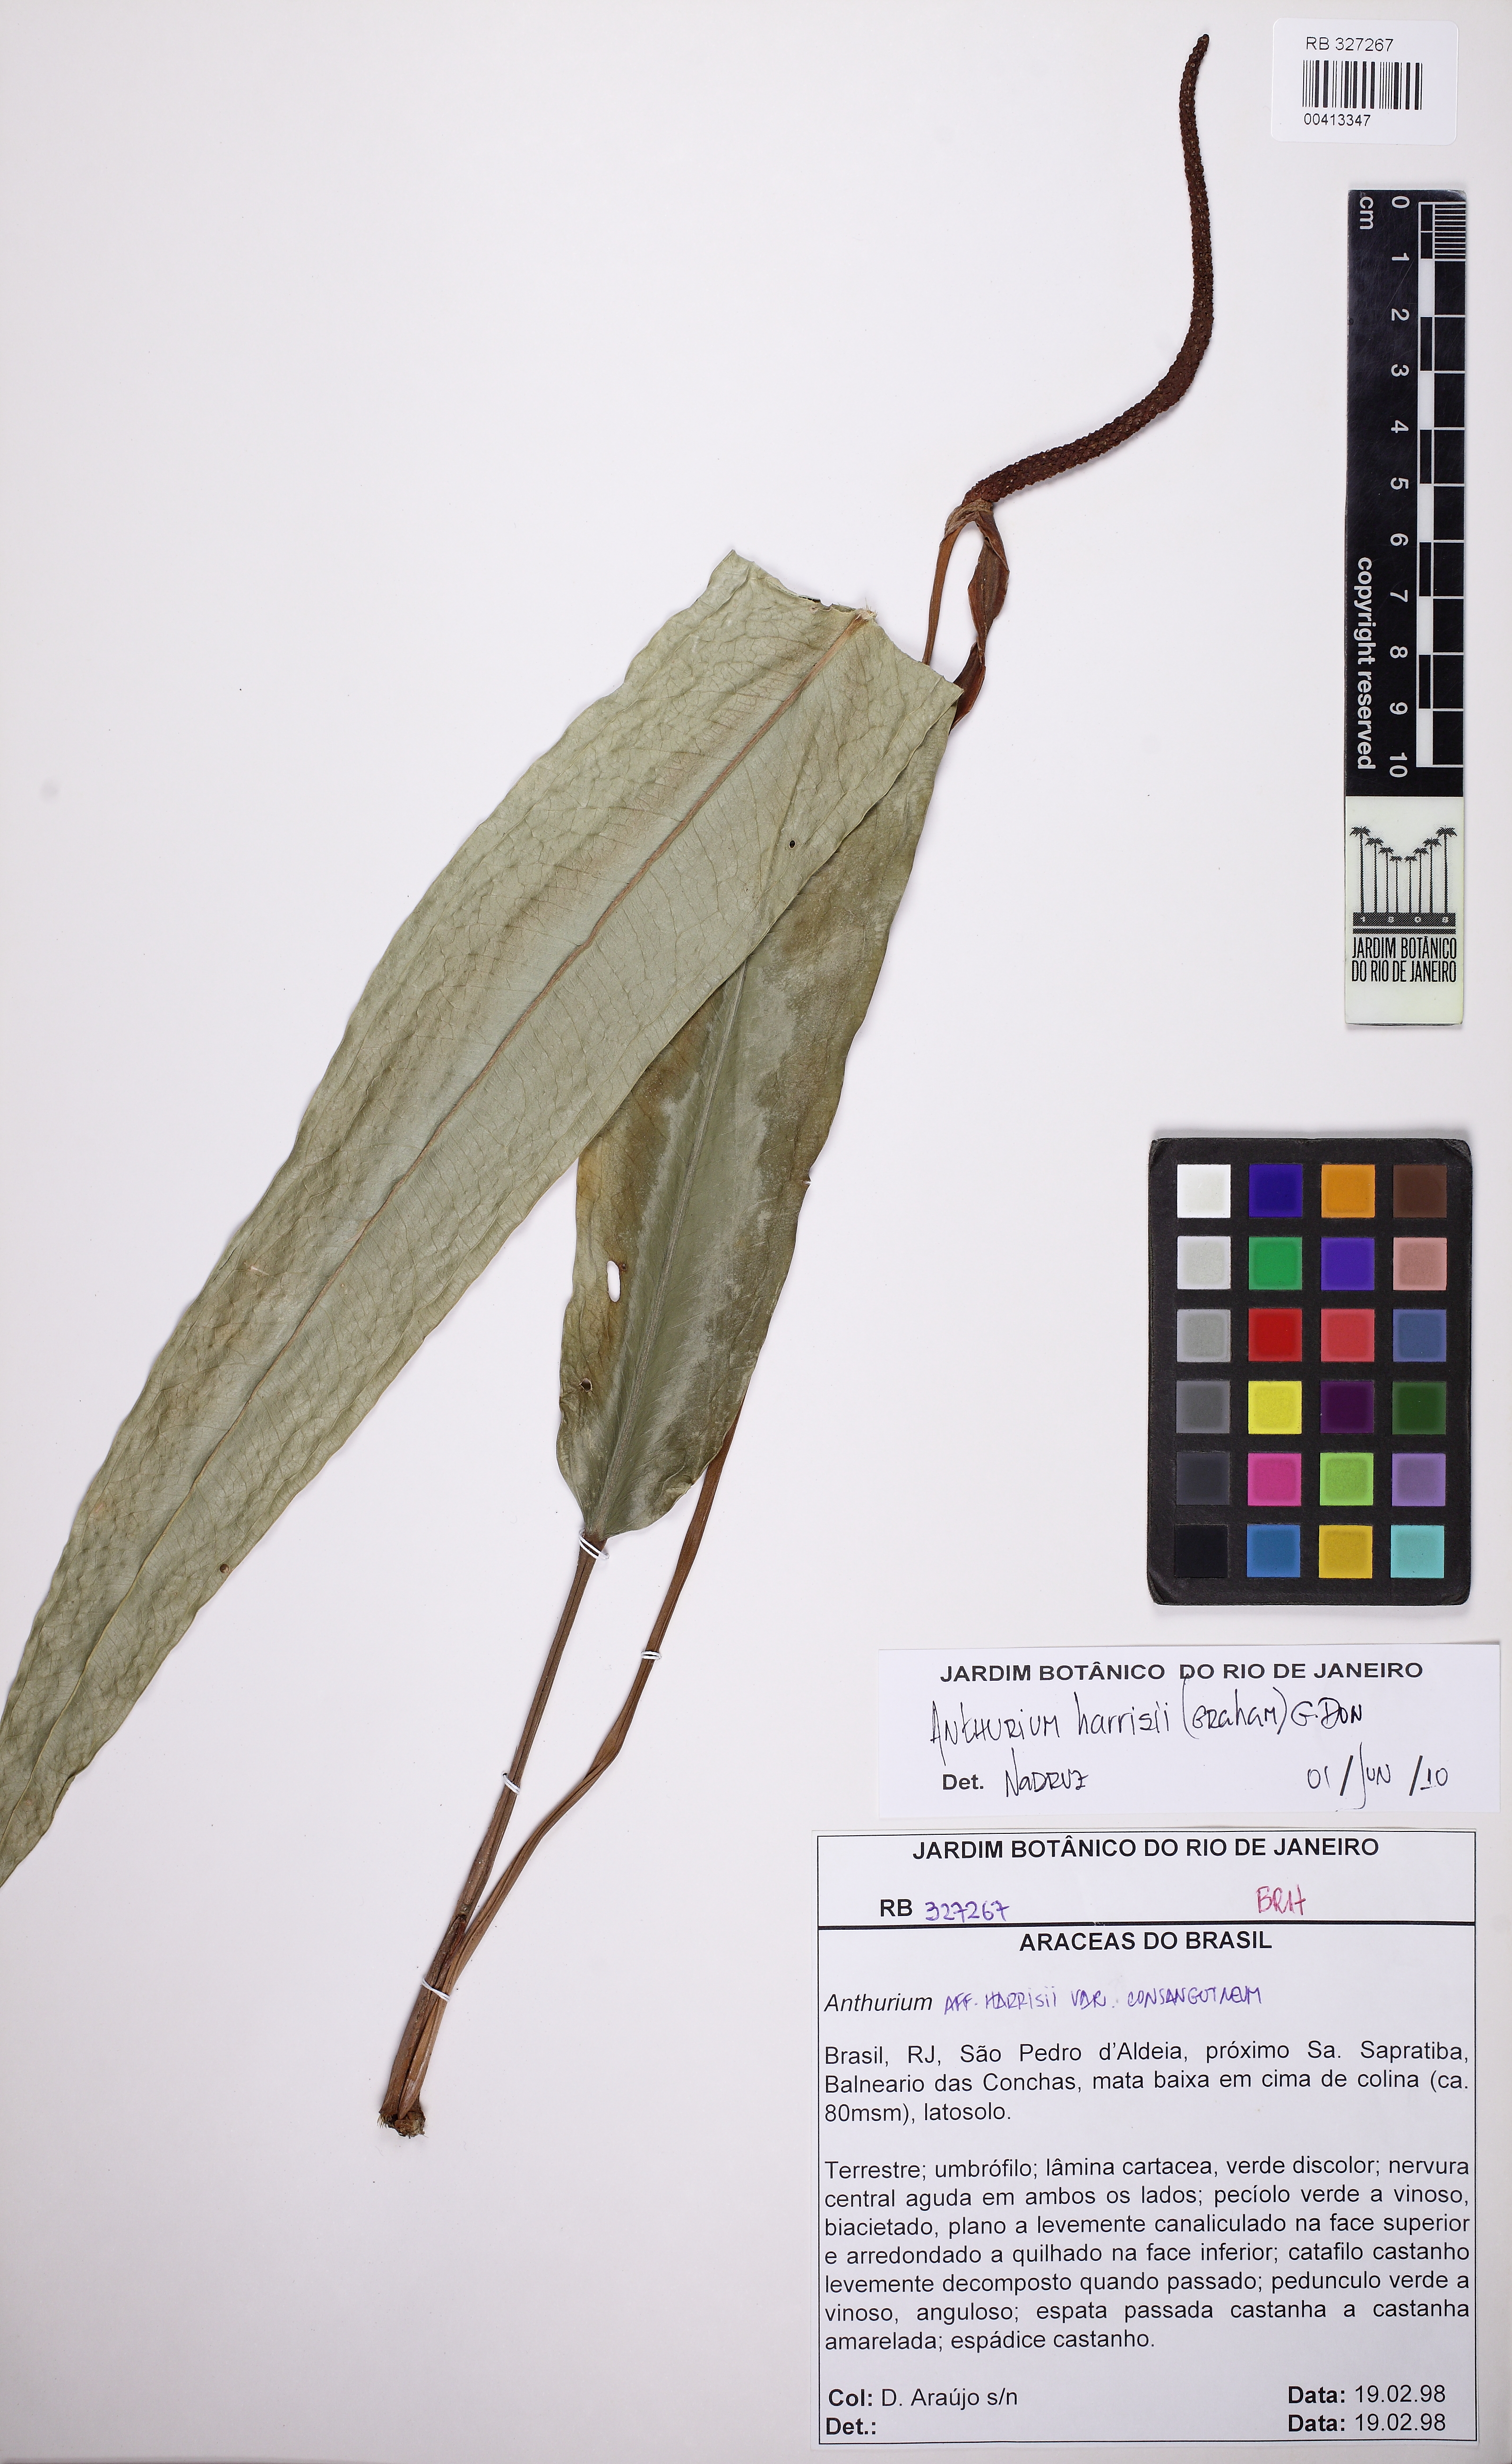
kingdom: Plantae
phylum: Tracheophyta
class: Liliopsida
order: Alismatales
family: Araceae
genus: Anthurium
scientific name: Anthurium harrisii
